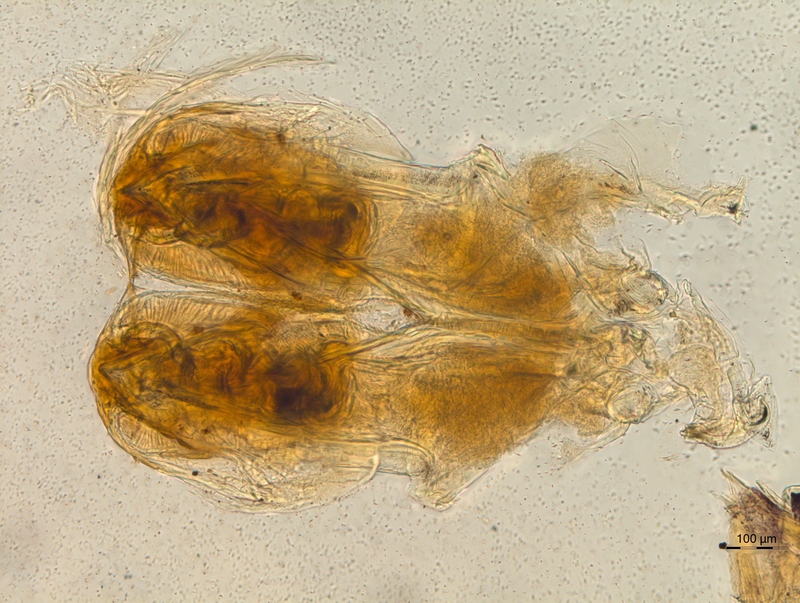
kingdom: Animalia
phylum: Arthropoda
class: Diplopoda
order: Chordeumatida
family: Diplomaragnidae
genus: Diplomaragna
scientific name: Diplomaragna formosana
